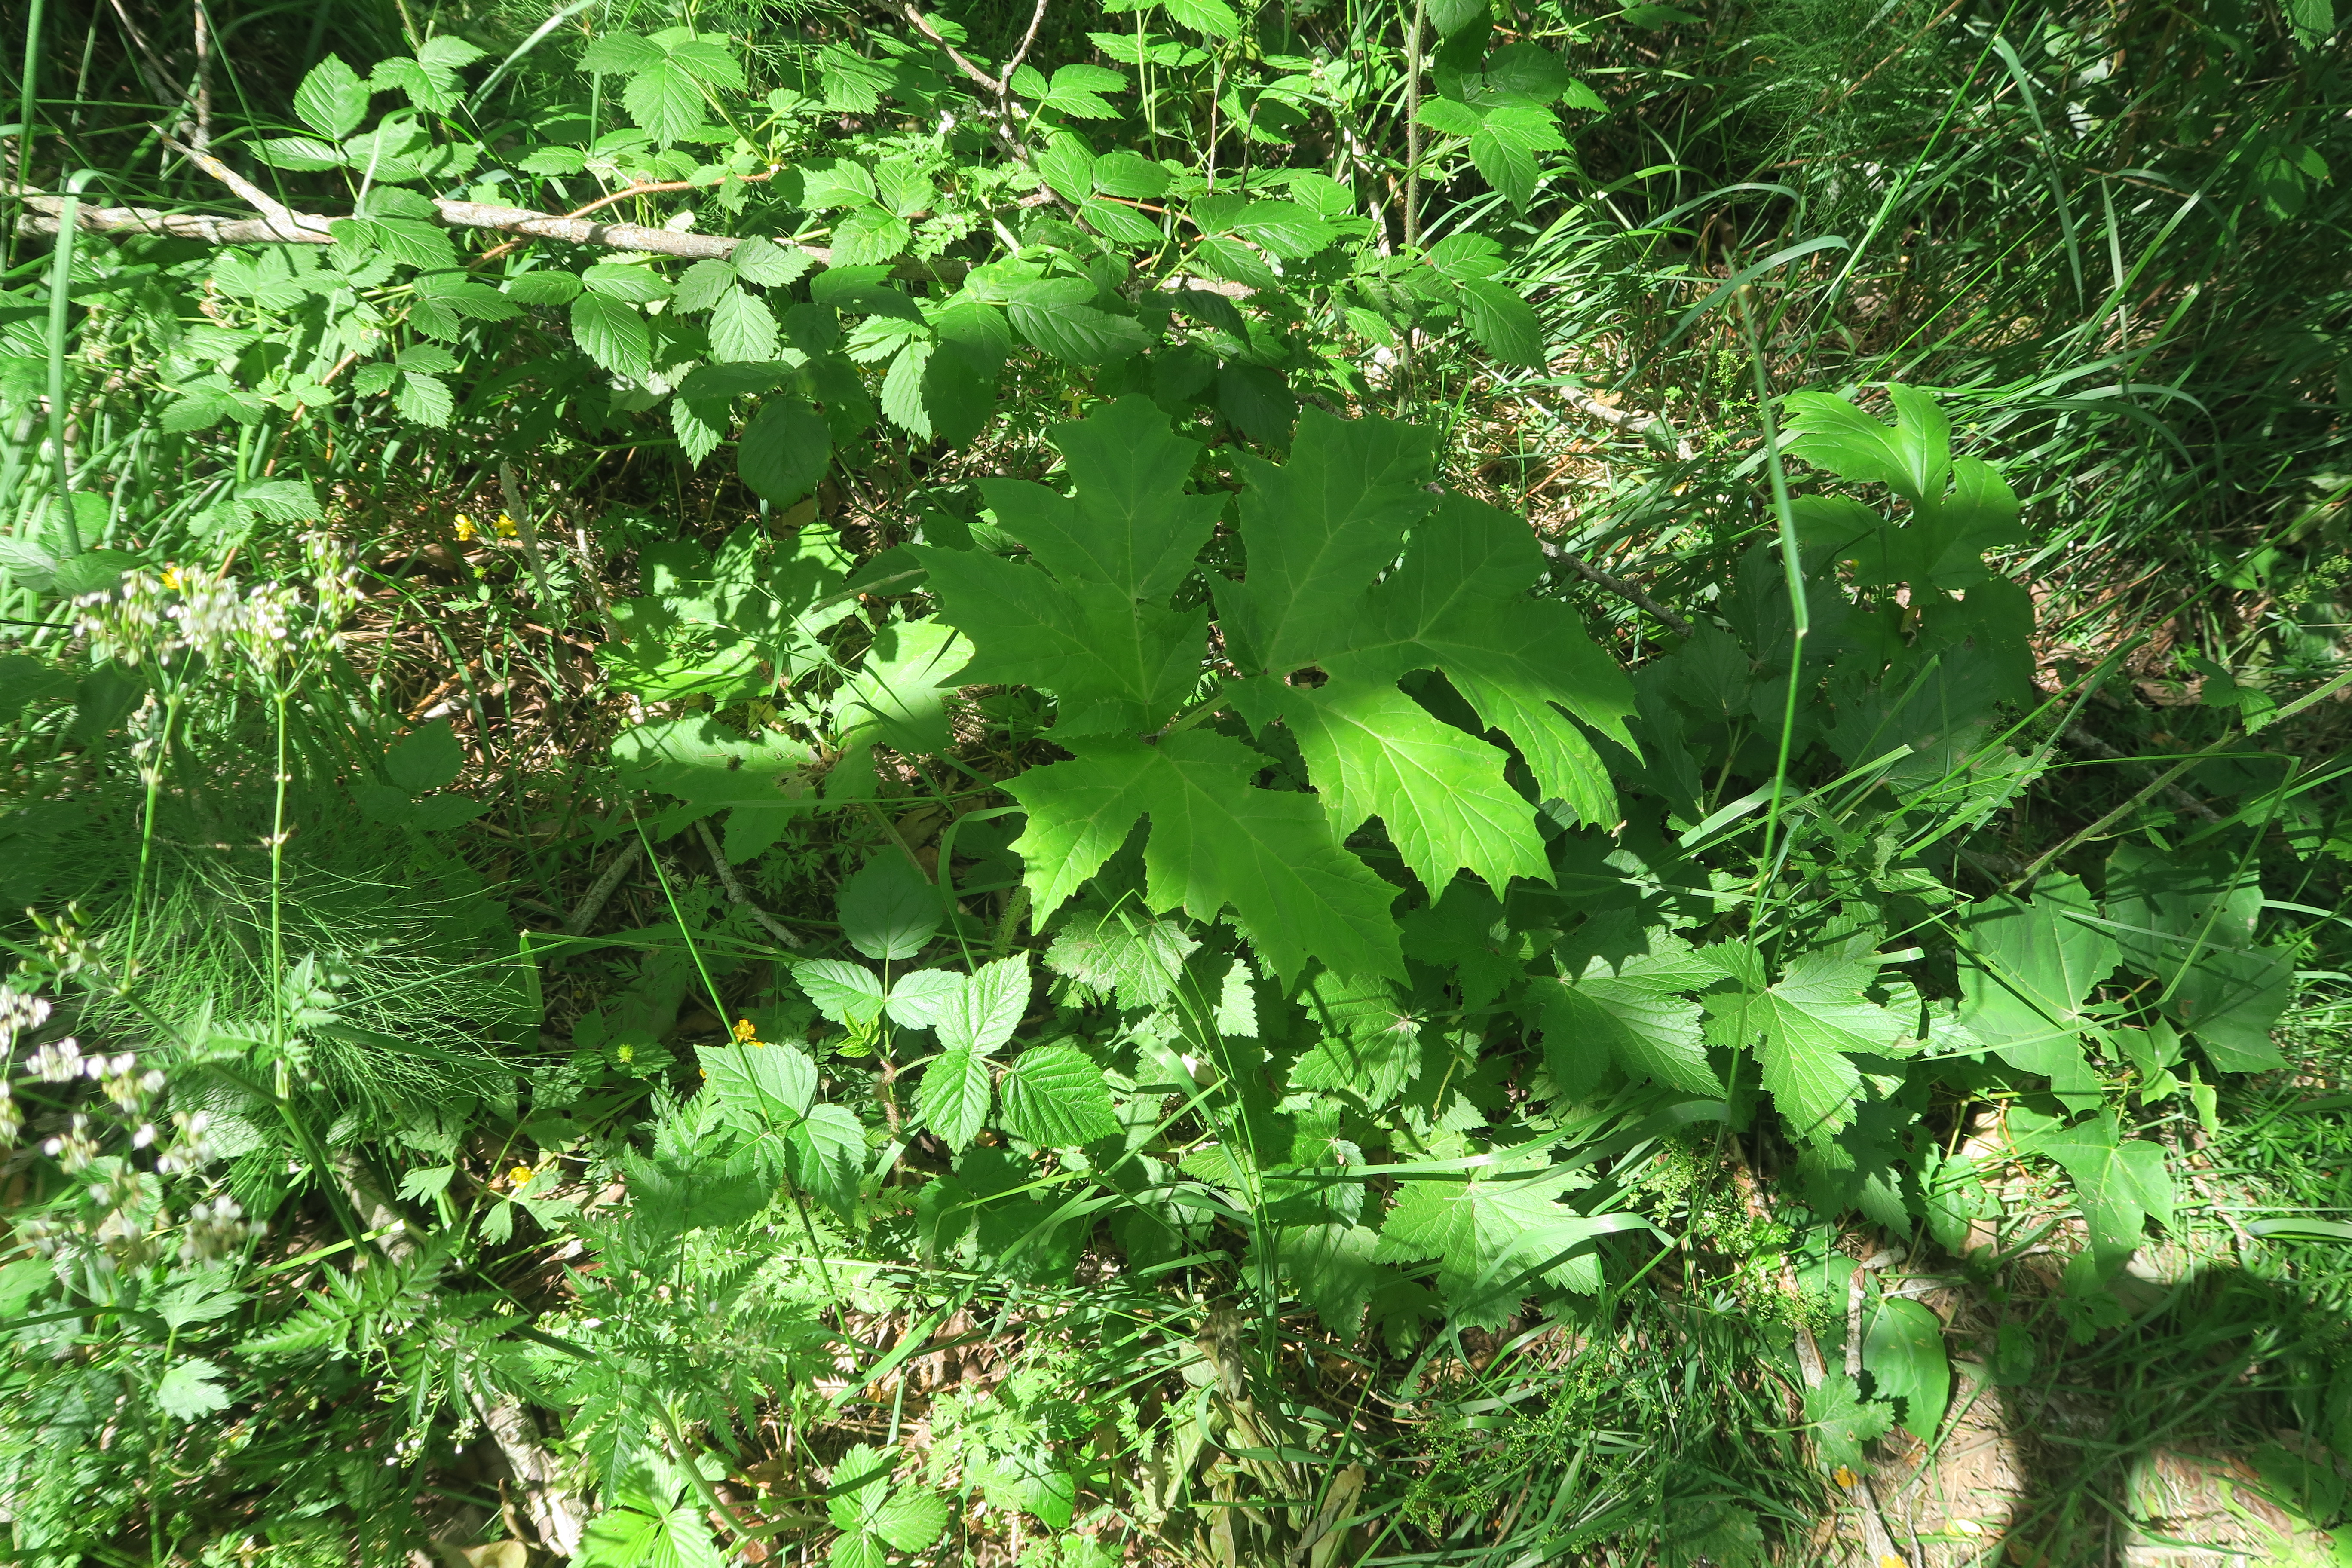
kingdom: Plantae
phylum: Tracheophyta
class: Magnoliopsida
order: Apiales
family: Apiaceae
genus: Heracleum
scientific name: Heracleum
